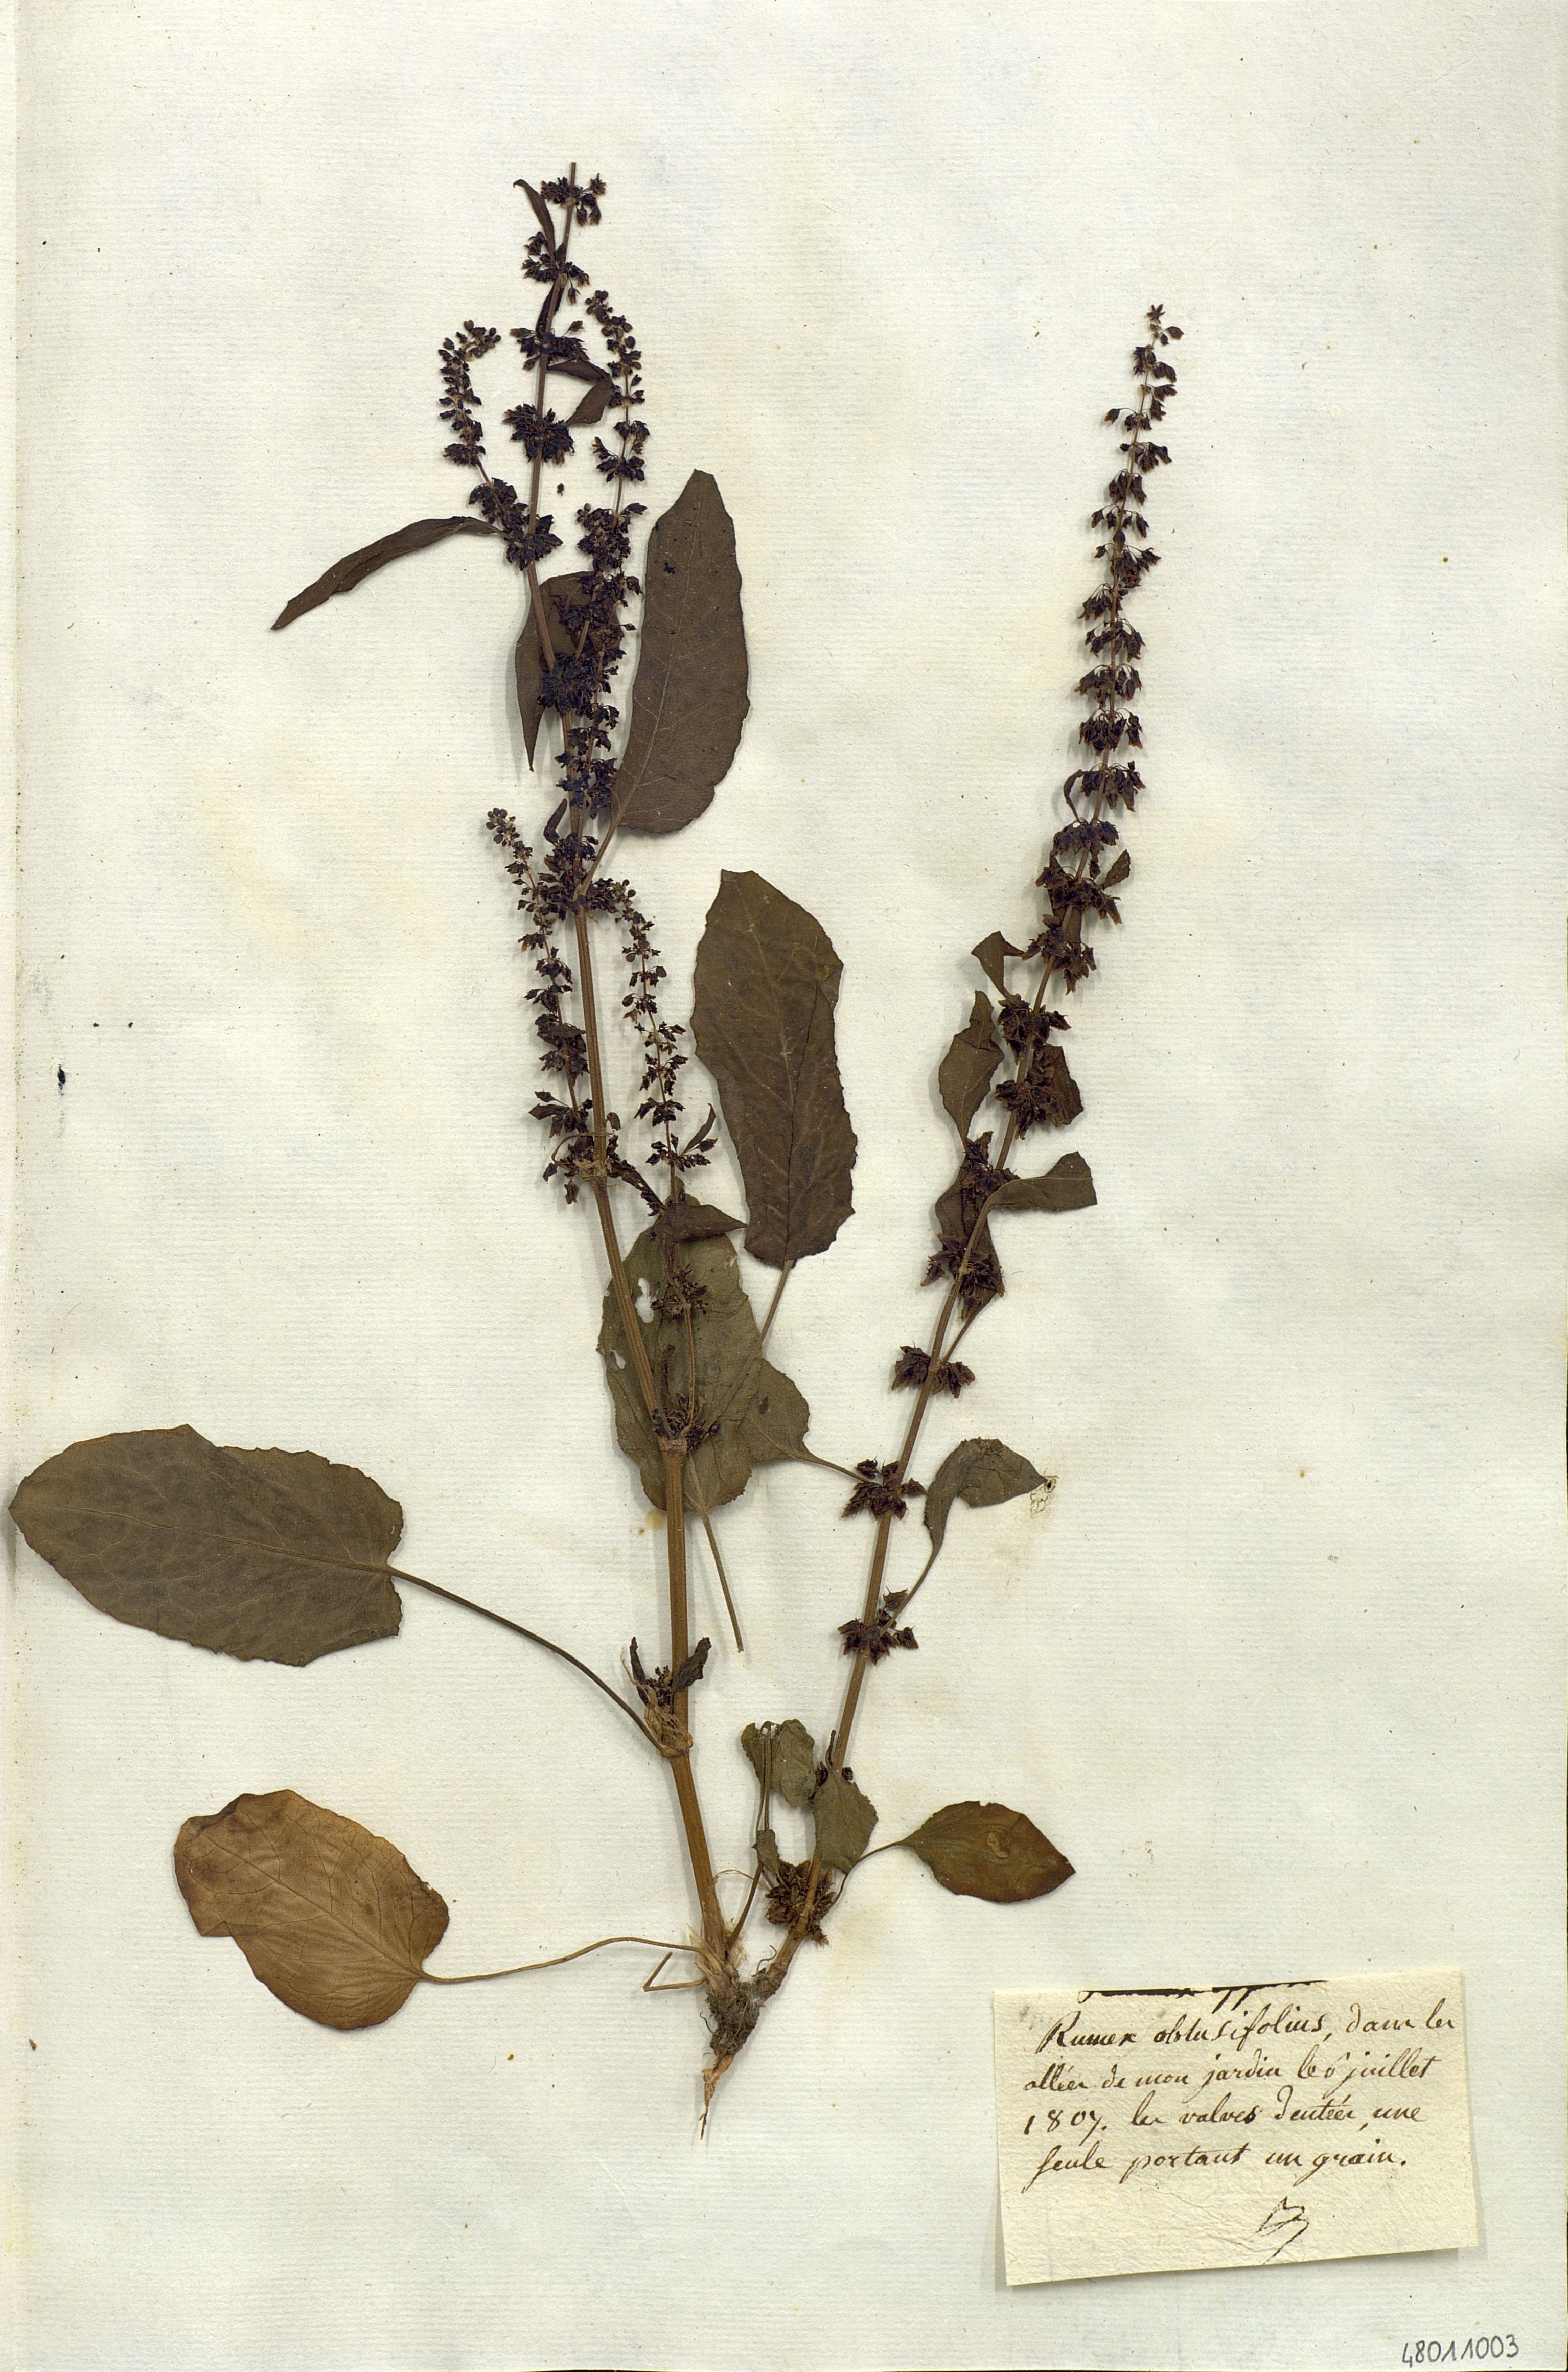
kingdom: Plantae
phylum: Tracheophyta
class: Magnoliopsida
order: Caryophyllales
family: Polygonaceae
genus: Rumex
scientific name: Rumex obtusifolius
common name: Bitter dock
